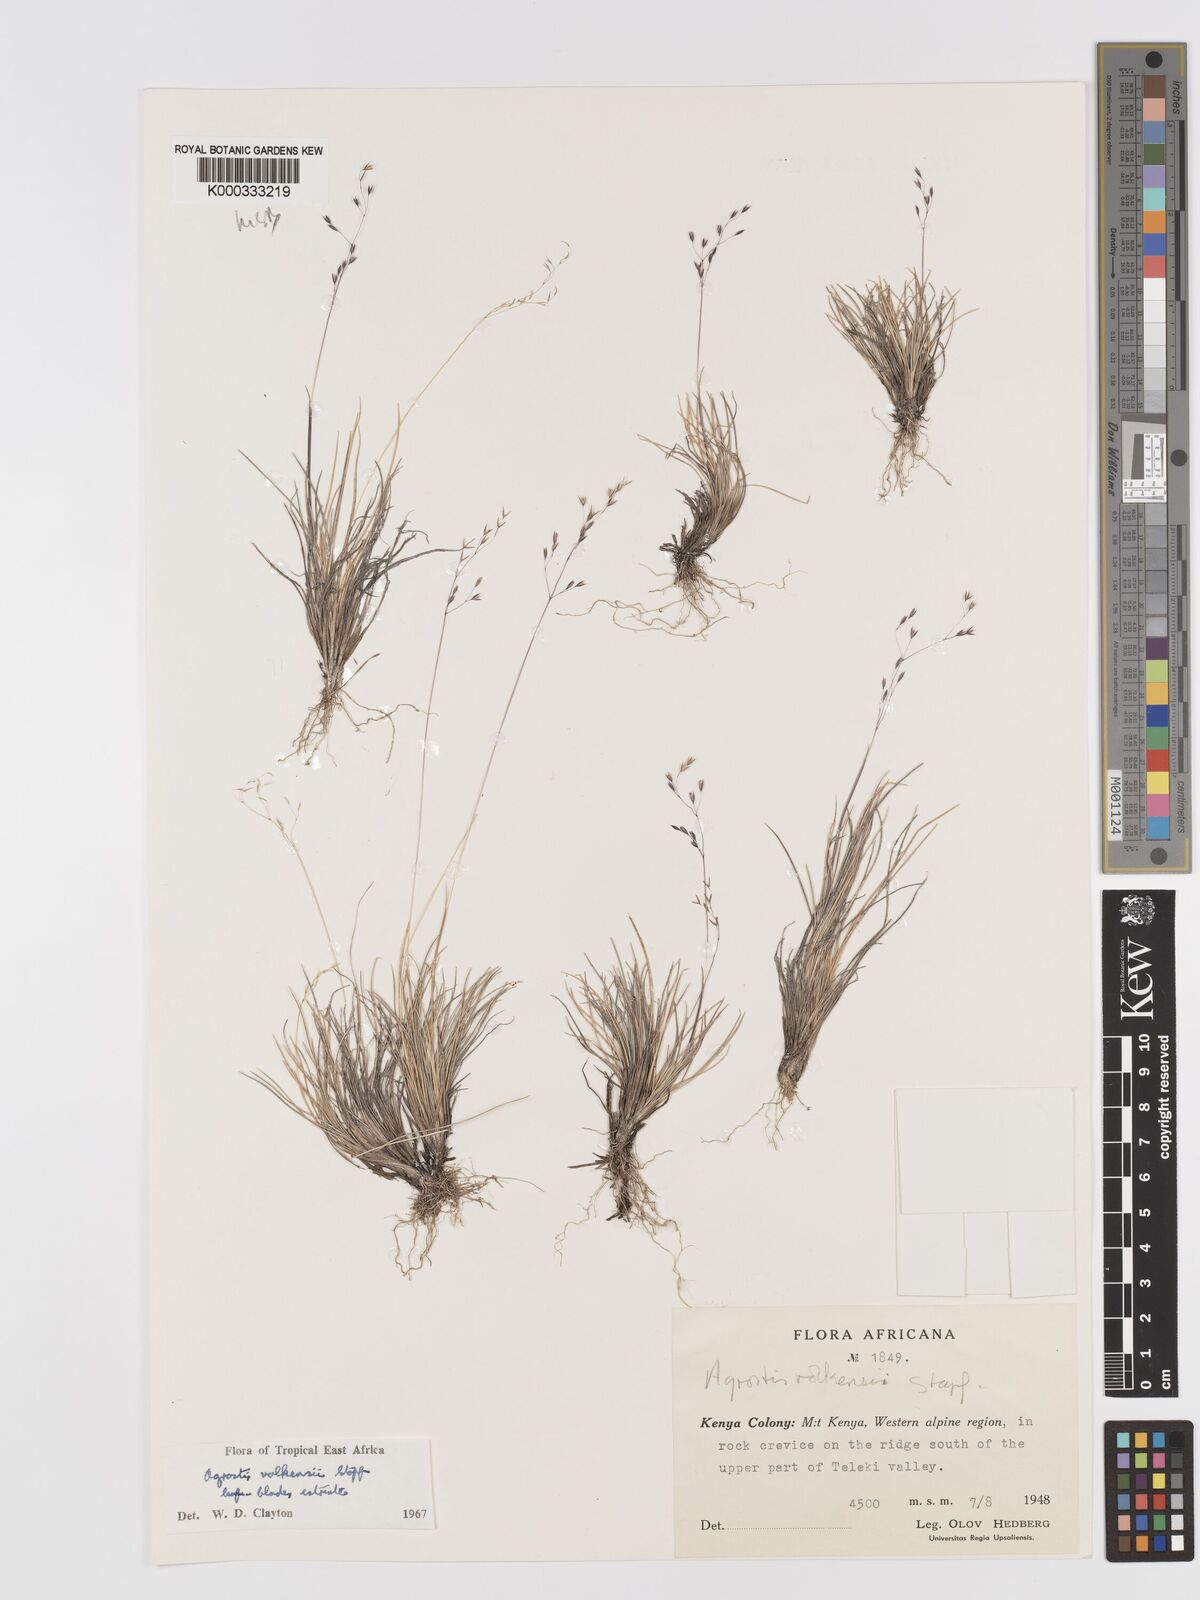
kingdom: Plantae
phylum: Tracheophyta
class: Liliopsida
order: Poales
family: Poaceae
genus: Agrostis
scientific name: Agrostis volkensii
